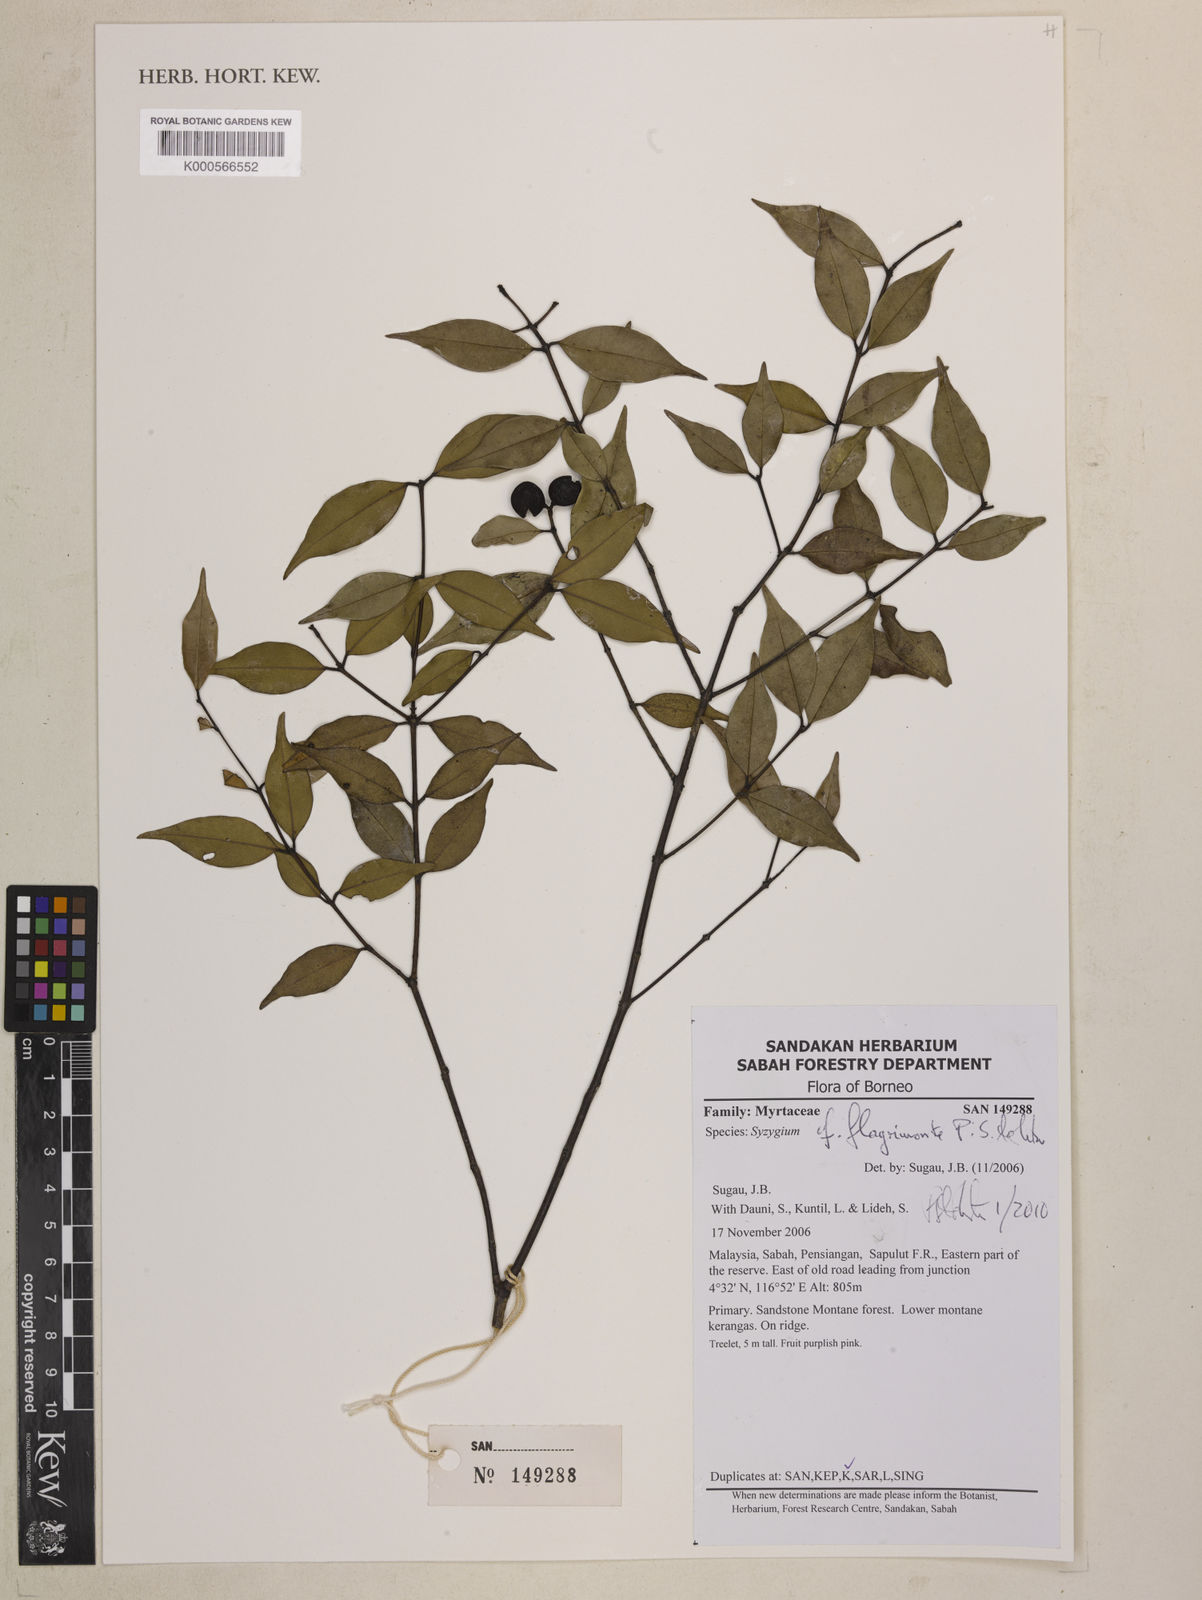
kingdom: Plantae
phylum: Tracheophyta
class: Magnoliopsida
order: Myrtales
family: Myrtaceae
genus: Syzygium
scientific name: Syzygium flagrimonte
